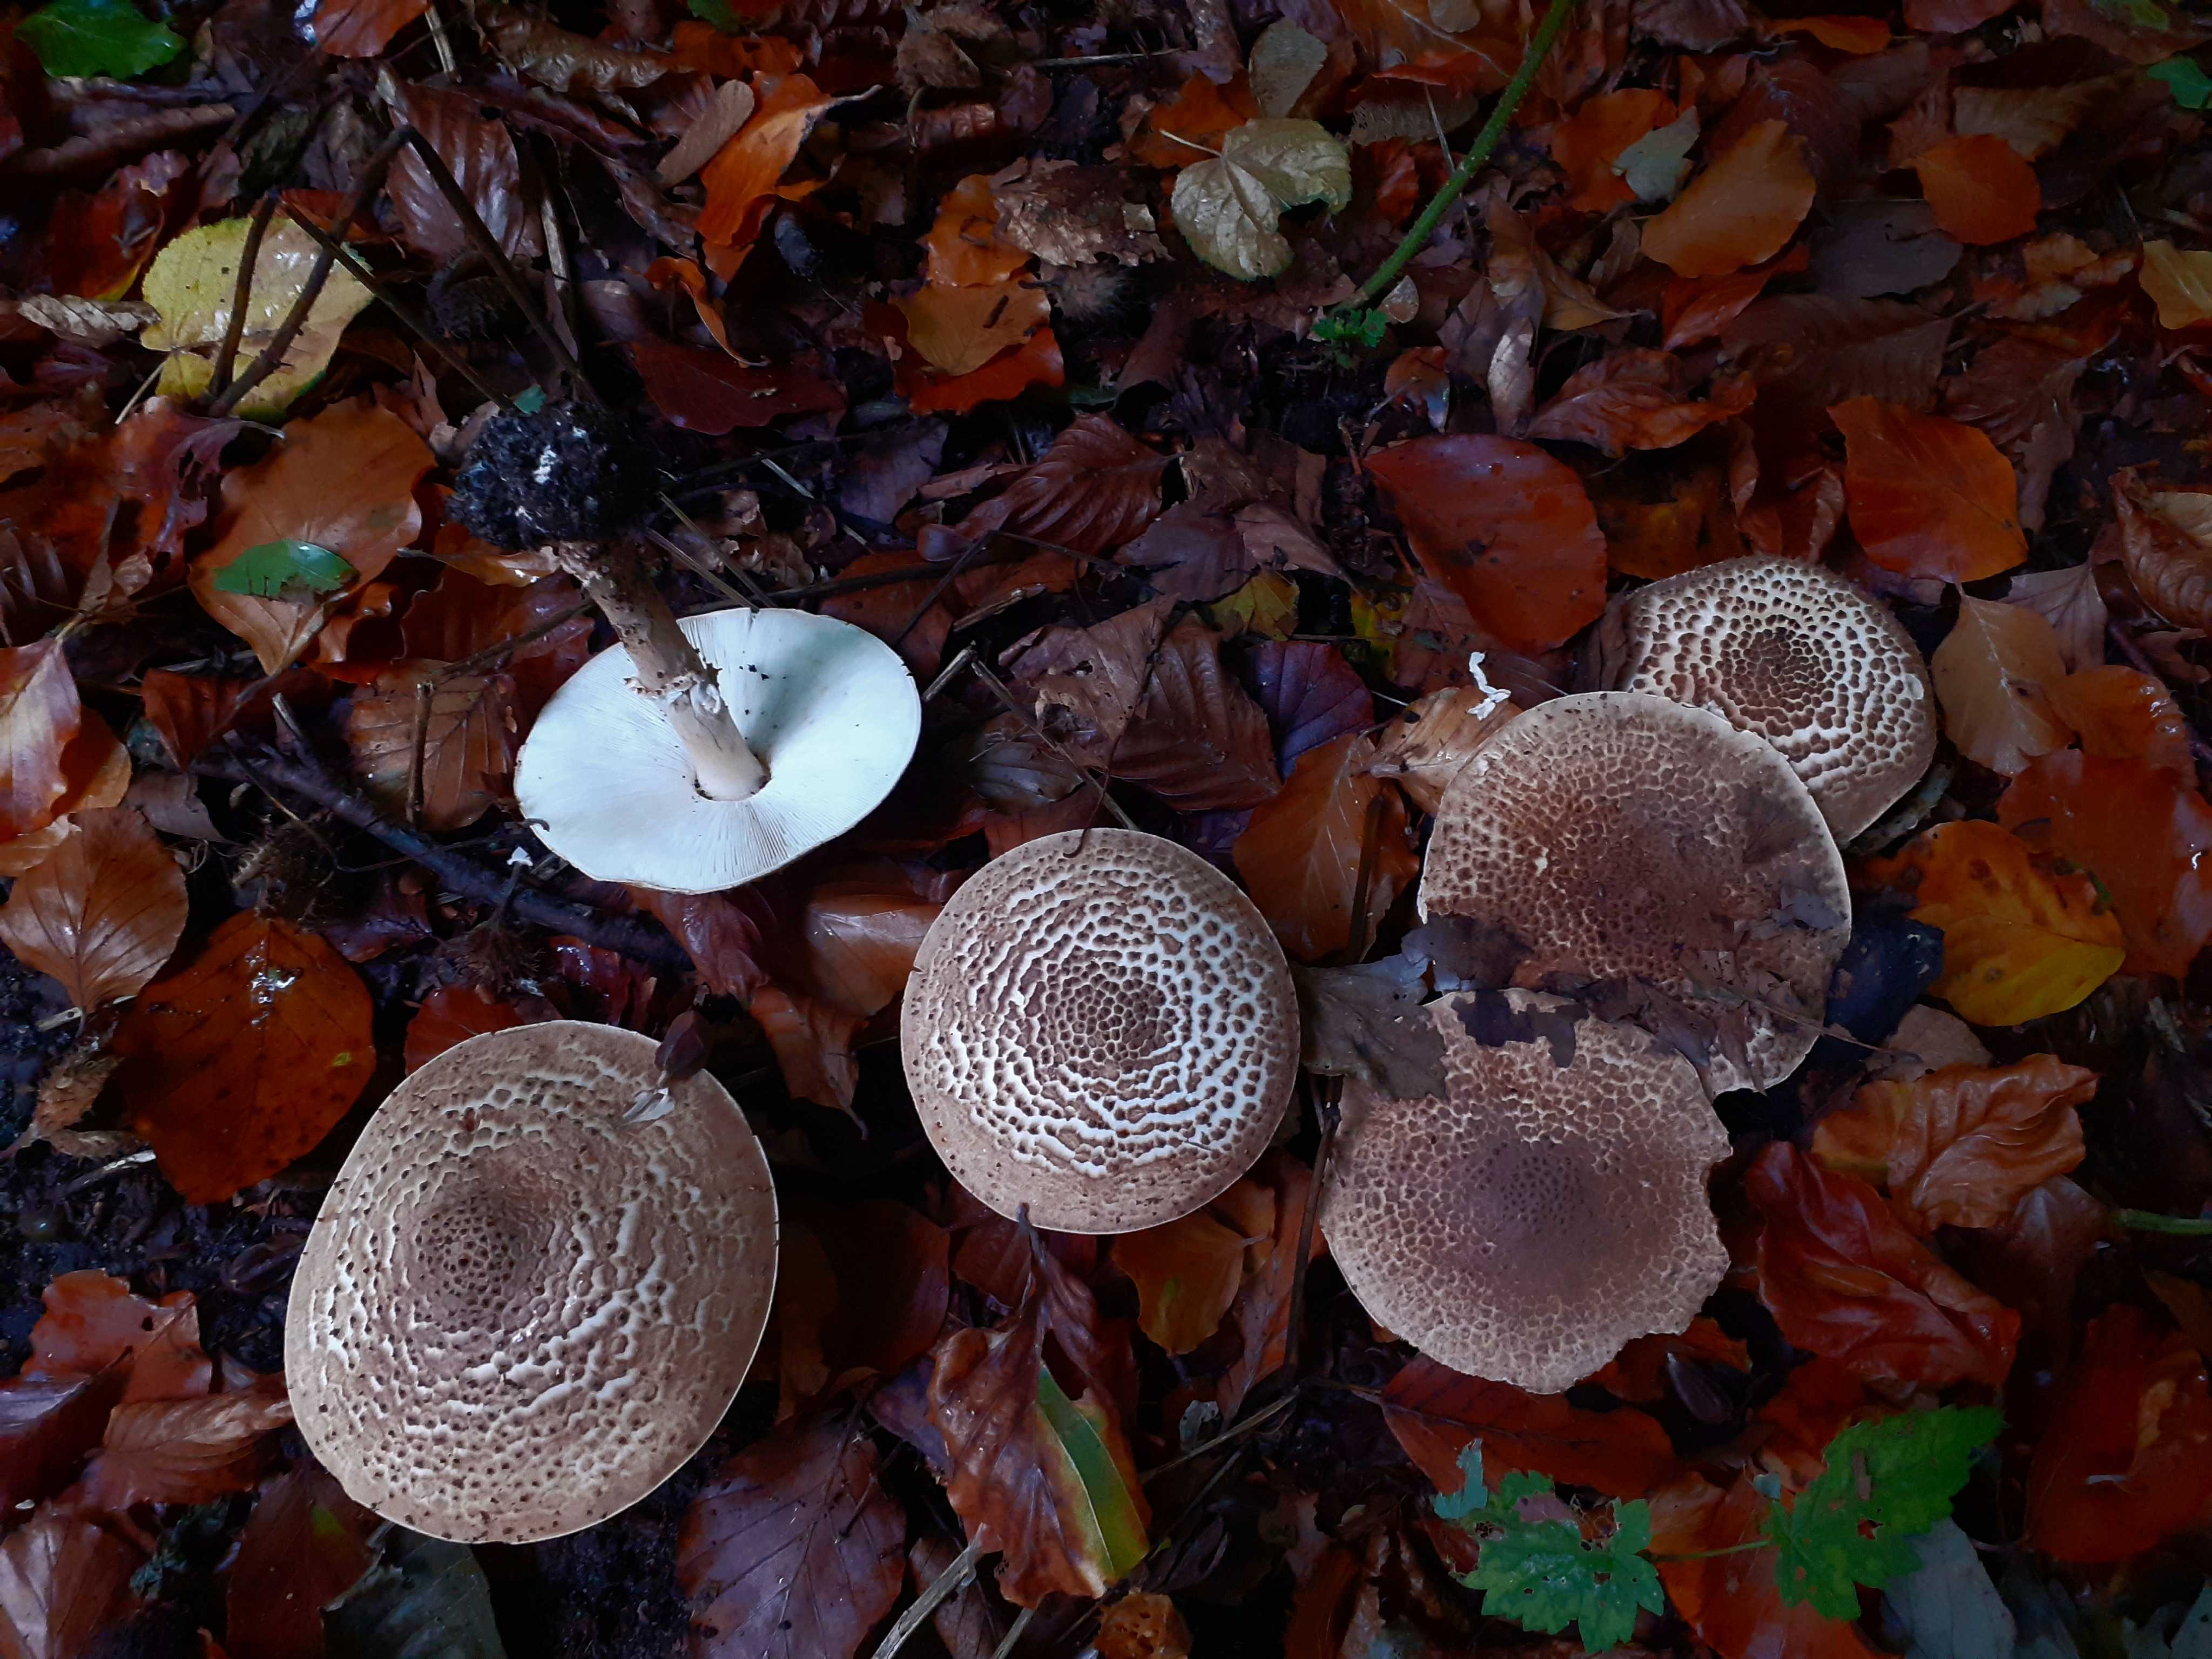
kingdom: Fungi
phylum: Basidiomycota
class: Agaricomycetes
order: Agaricales
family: Agaricaceae
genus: Echinoderma
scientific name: Echinoderma asperum
